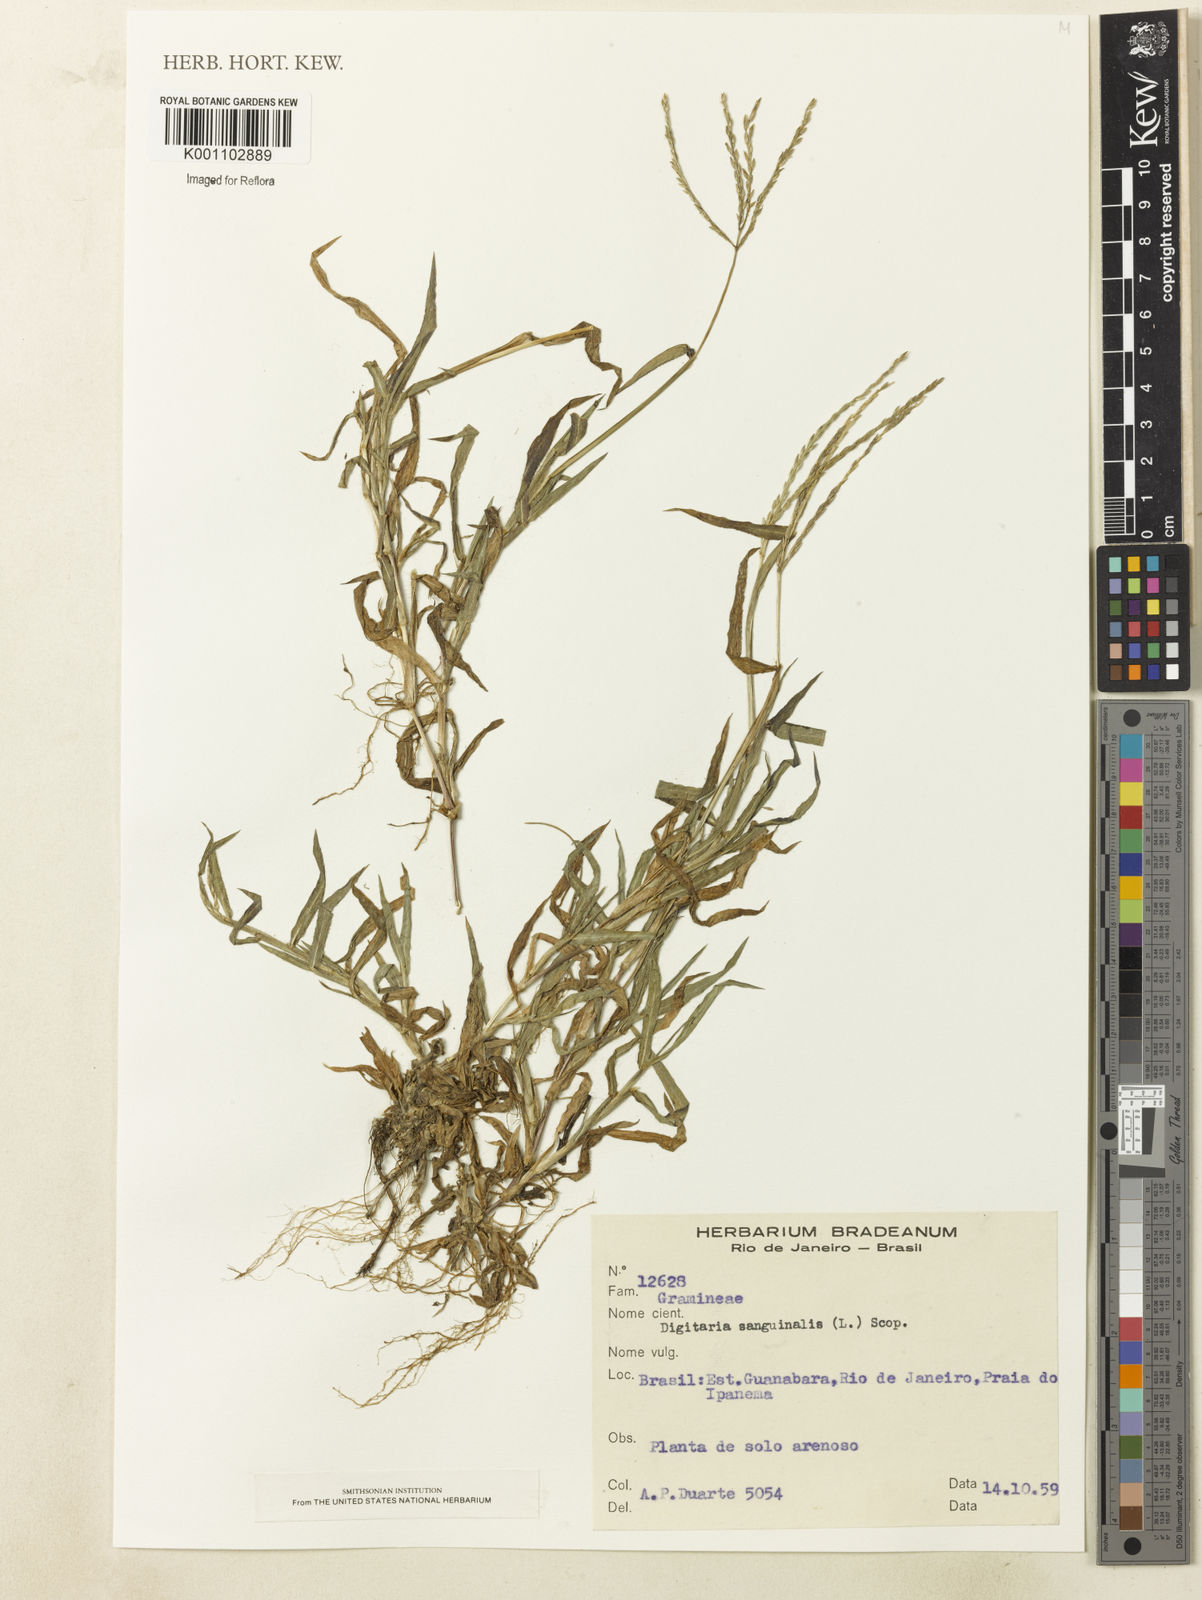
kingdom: Plantae
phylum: Tracheophyta
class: Liliopsida
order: Poales
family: Poaceae
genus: Digitaria
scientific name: Digitaria sanguinalis
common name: Hairy crabgrass
